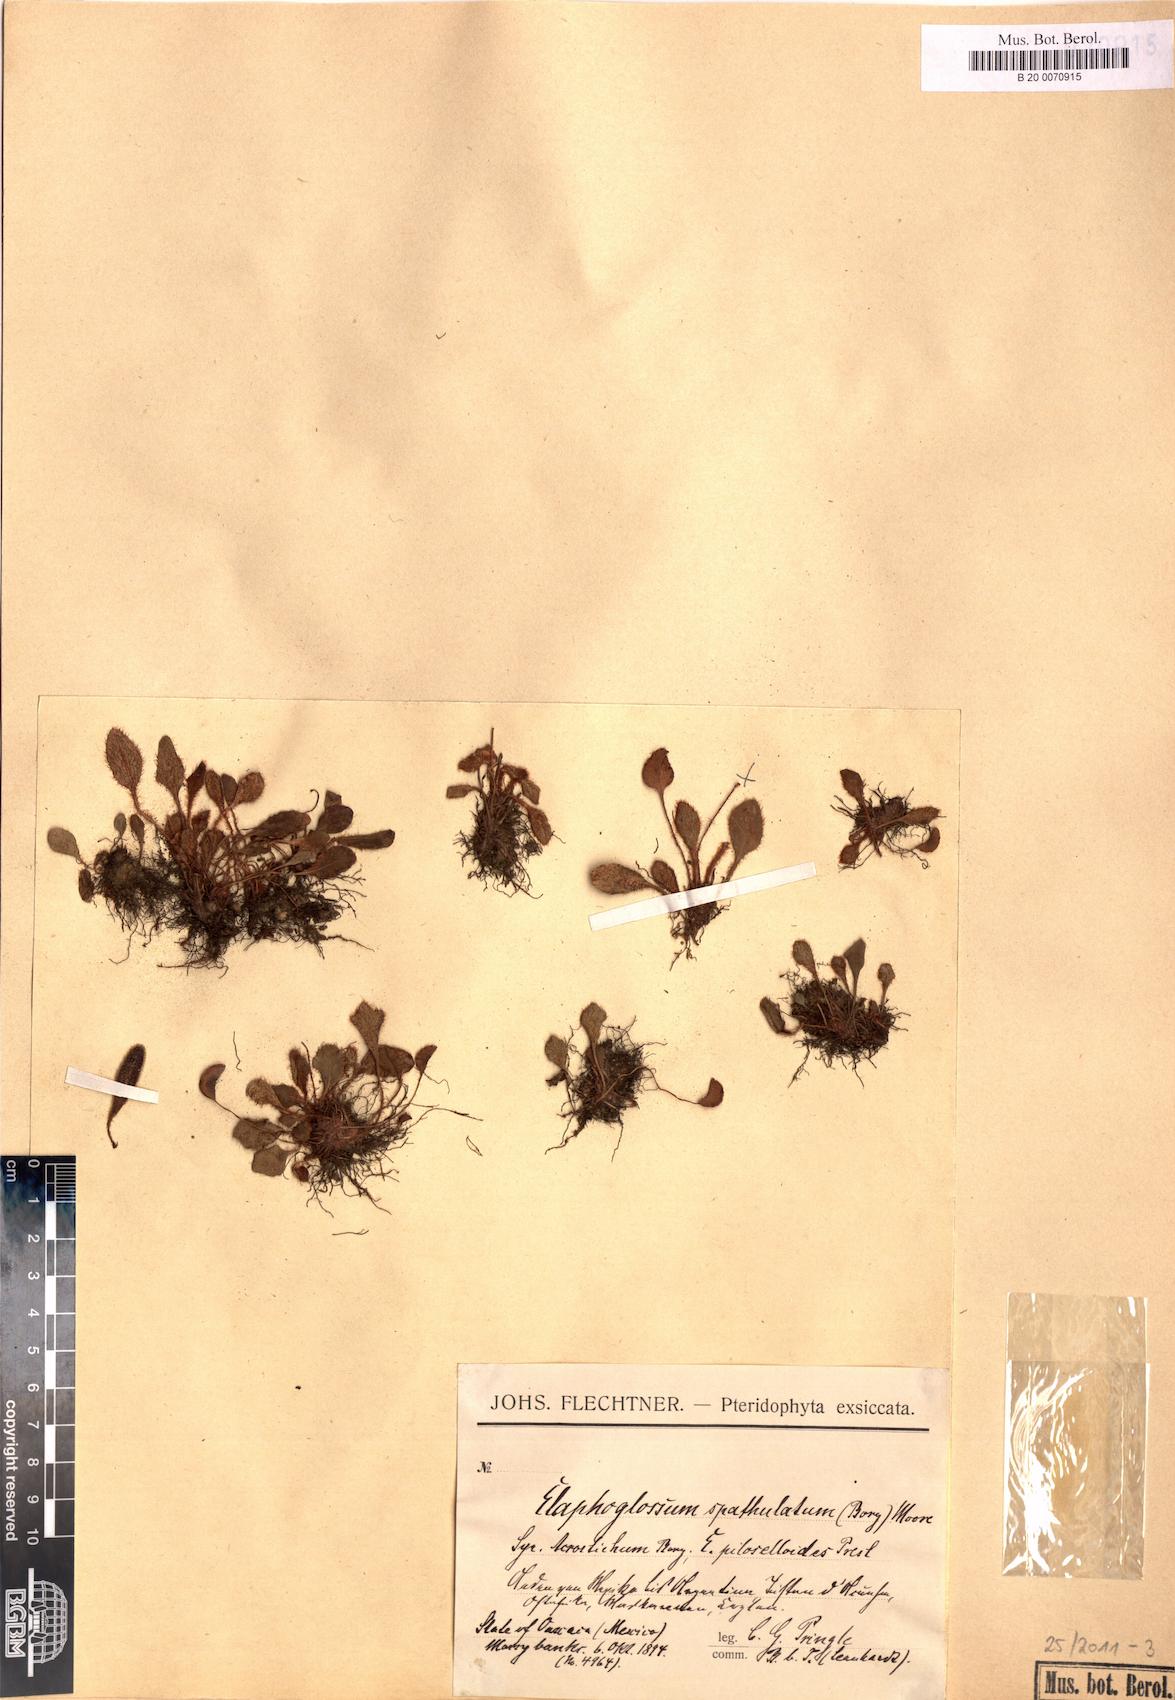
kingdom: Plantae
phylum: Tracheophyta
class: Polypodiopsida
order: Polypodiales
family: Dryopteridaceae
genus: Elaphoglossum
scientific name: Elaphoglossum piloselloides
